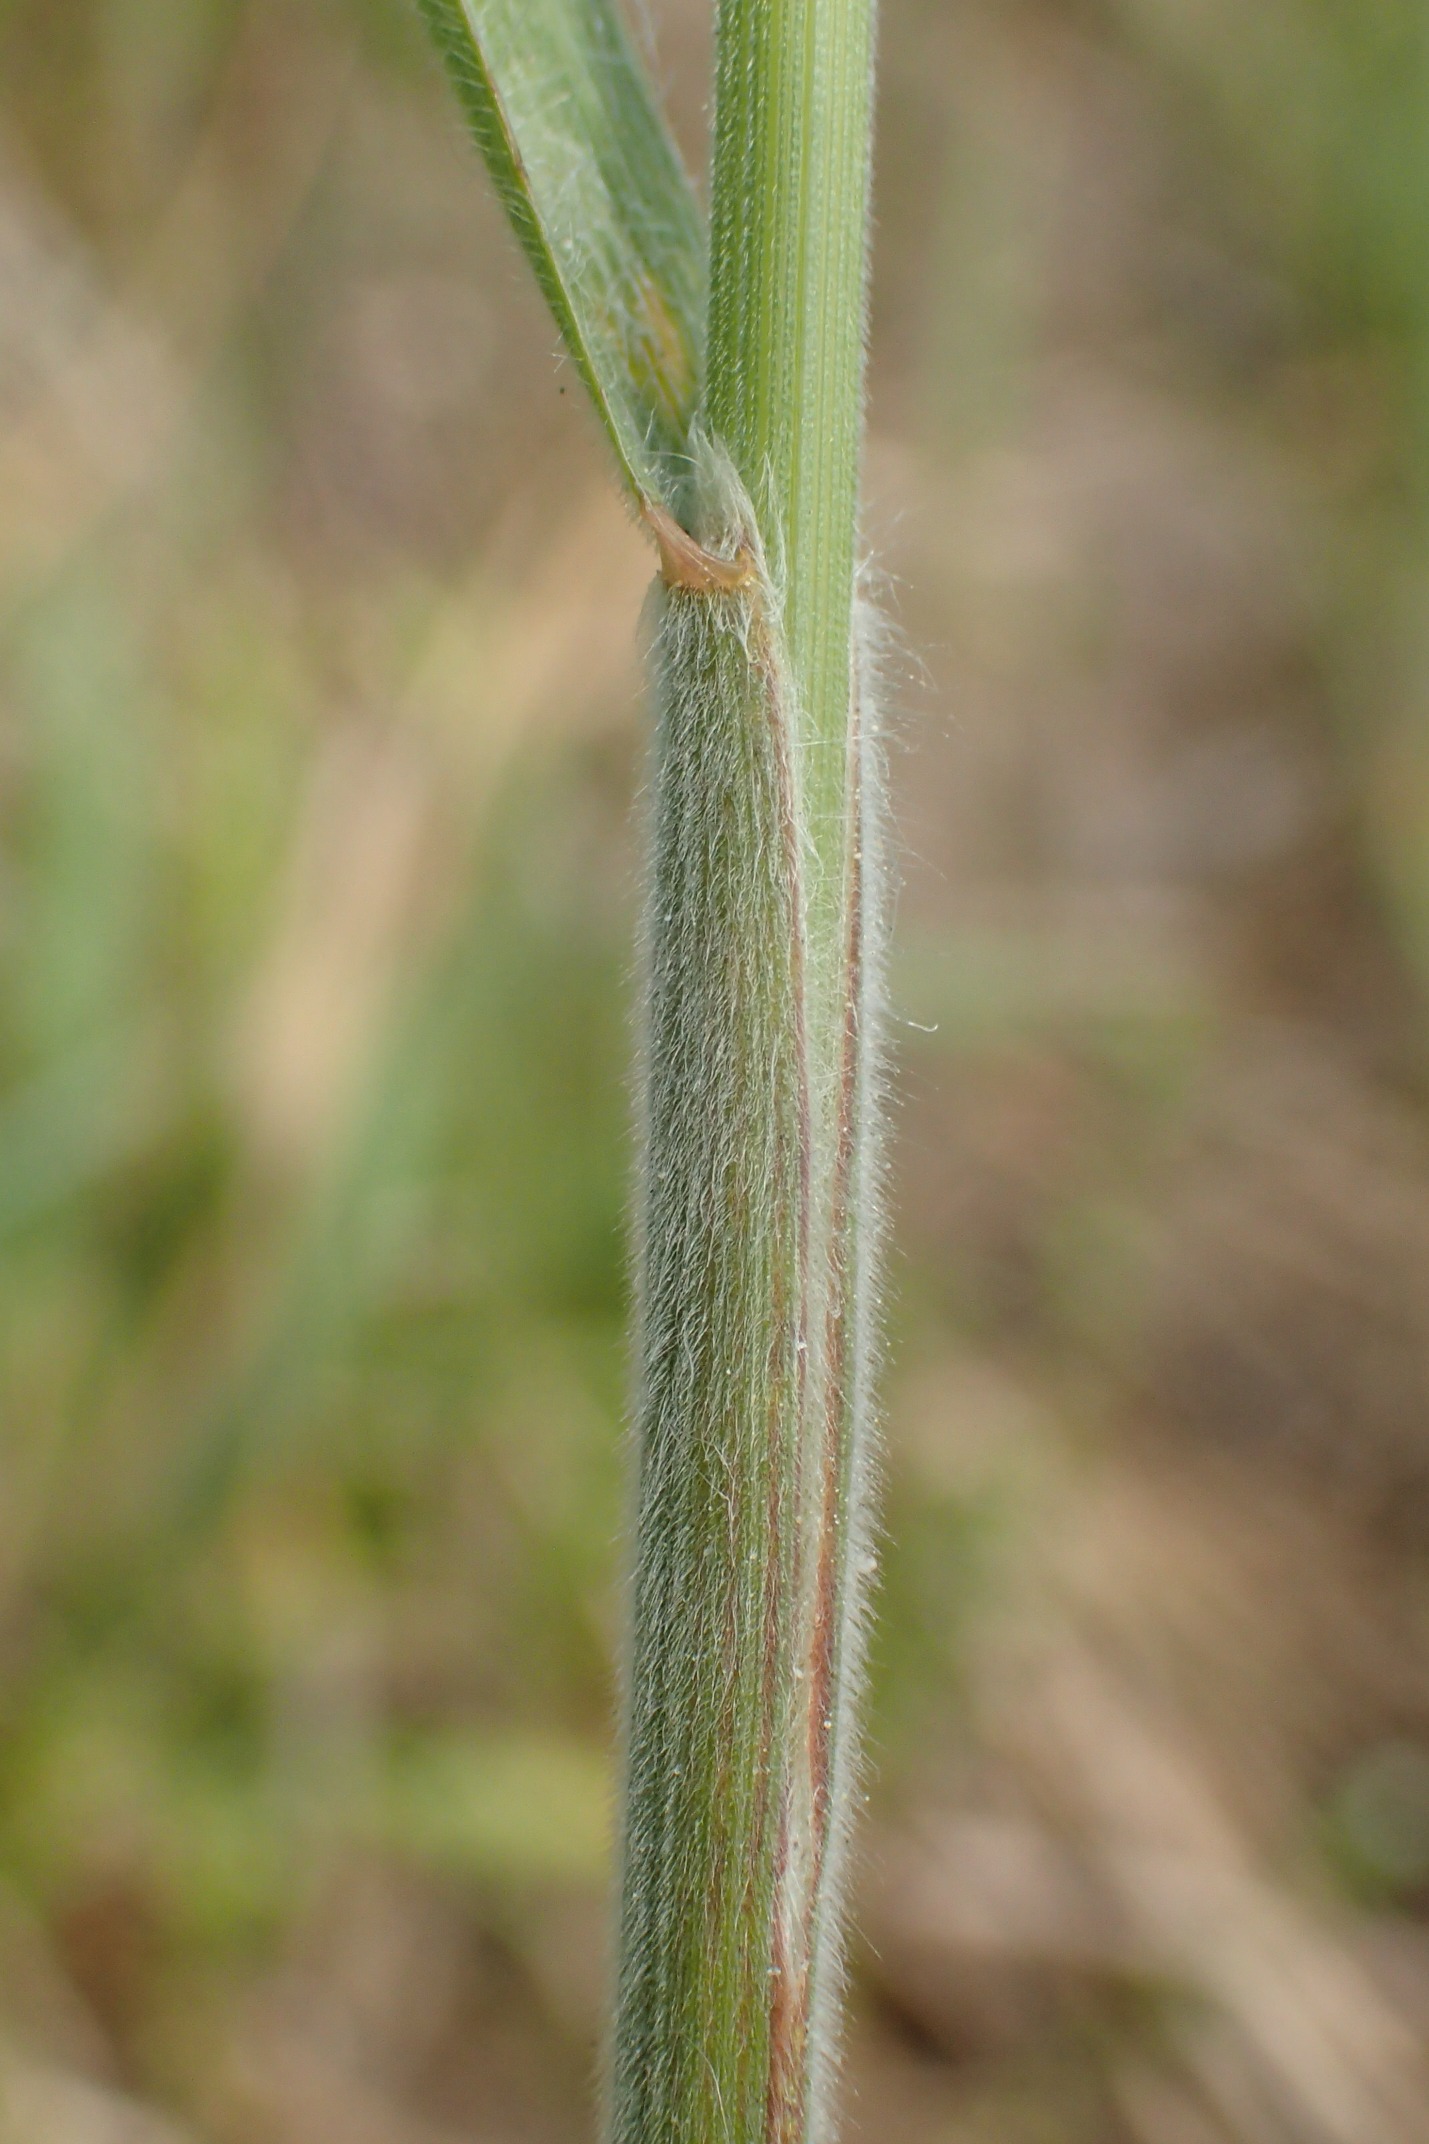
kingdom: Plantae
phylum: Tracheophyta
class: Liliopsida
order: Poales
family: Poaceae
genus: Bromus
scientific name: Bromus hordeaceus
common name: Blød hejre
